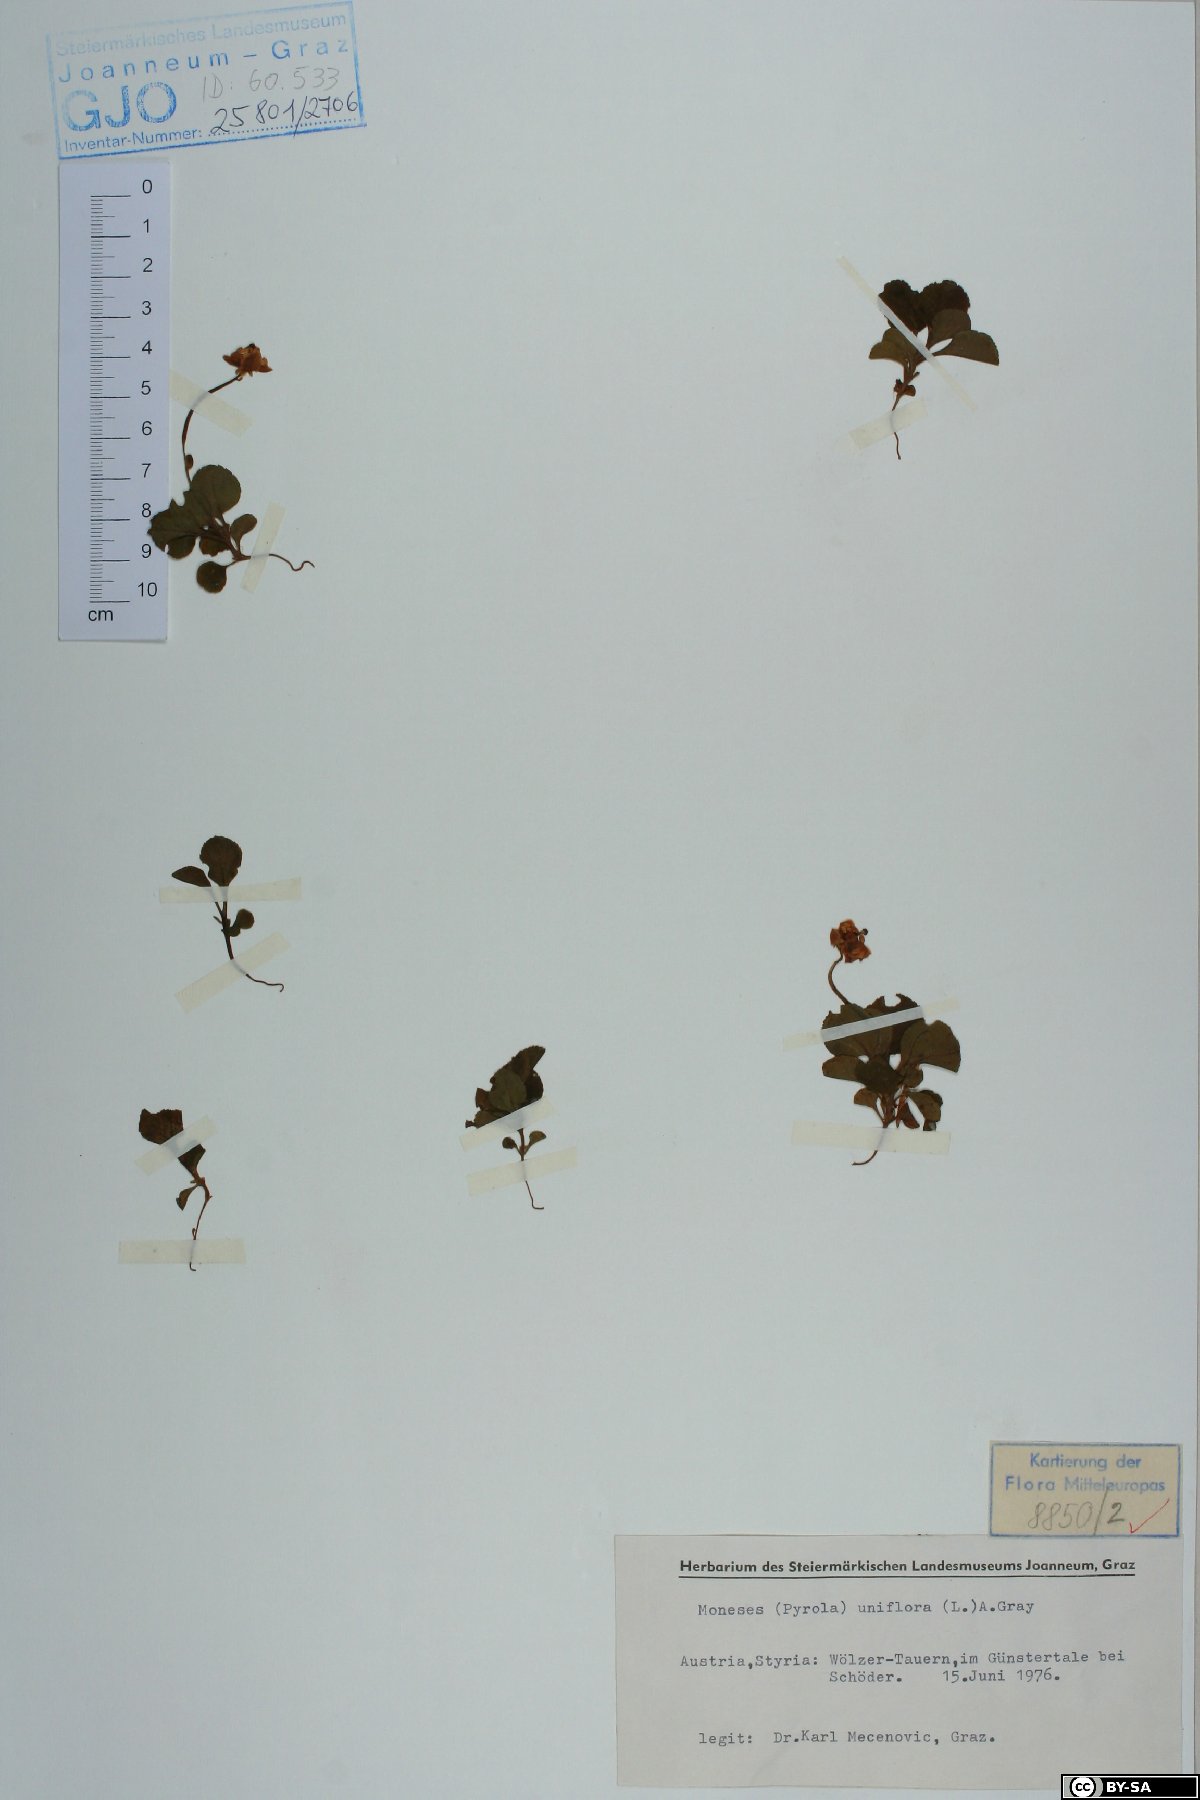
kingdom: Plantae
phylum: Tracheophyta
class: Magnoliopsida
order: Ericales
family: Ericaceae
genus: Moneses
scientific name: Moneses uniflora
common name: One-flowered wintergreen
